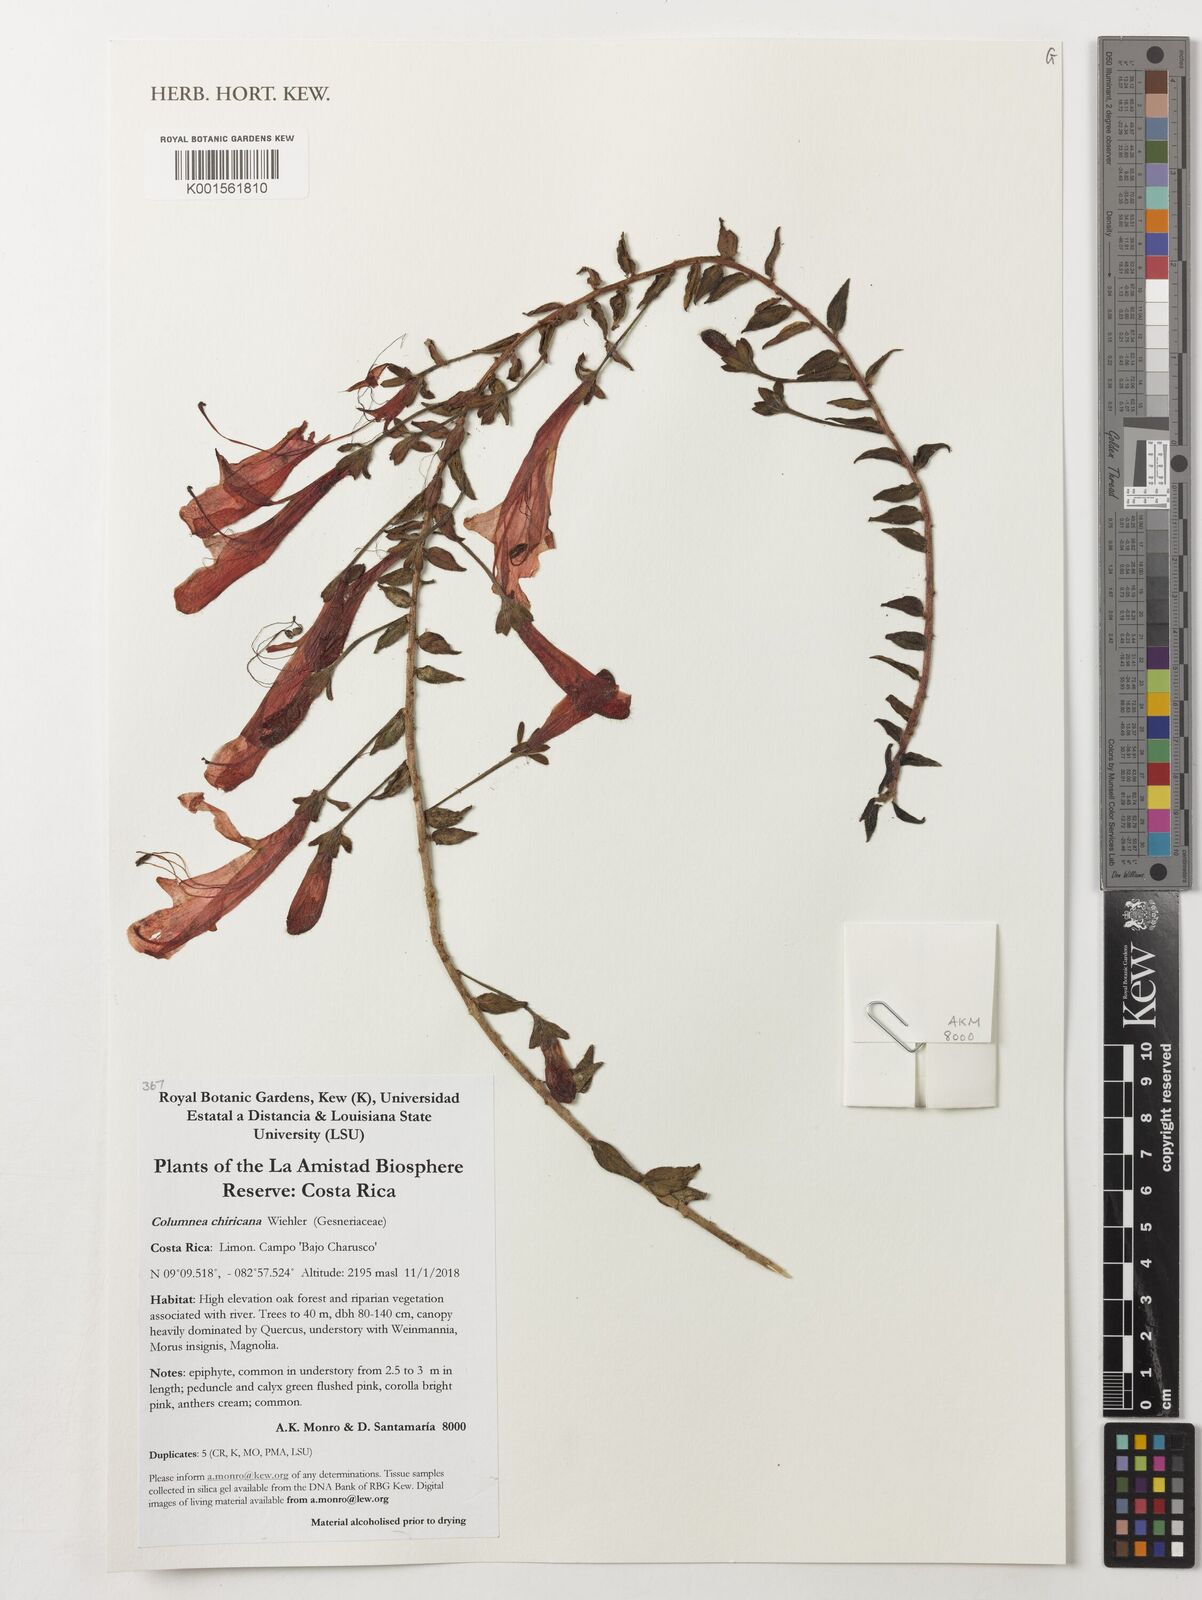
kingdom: Plantae
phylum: Tracheophyta
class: Magnoliopsida
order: Lamiales
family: Gesneriaceae
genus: Columnea
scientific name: Columnea chiricana
